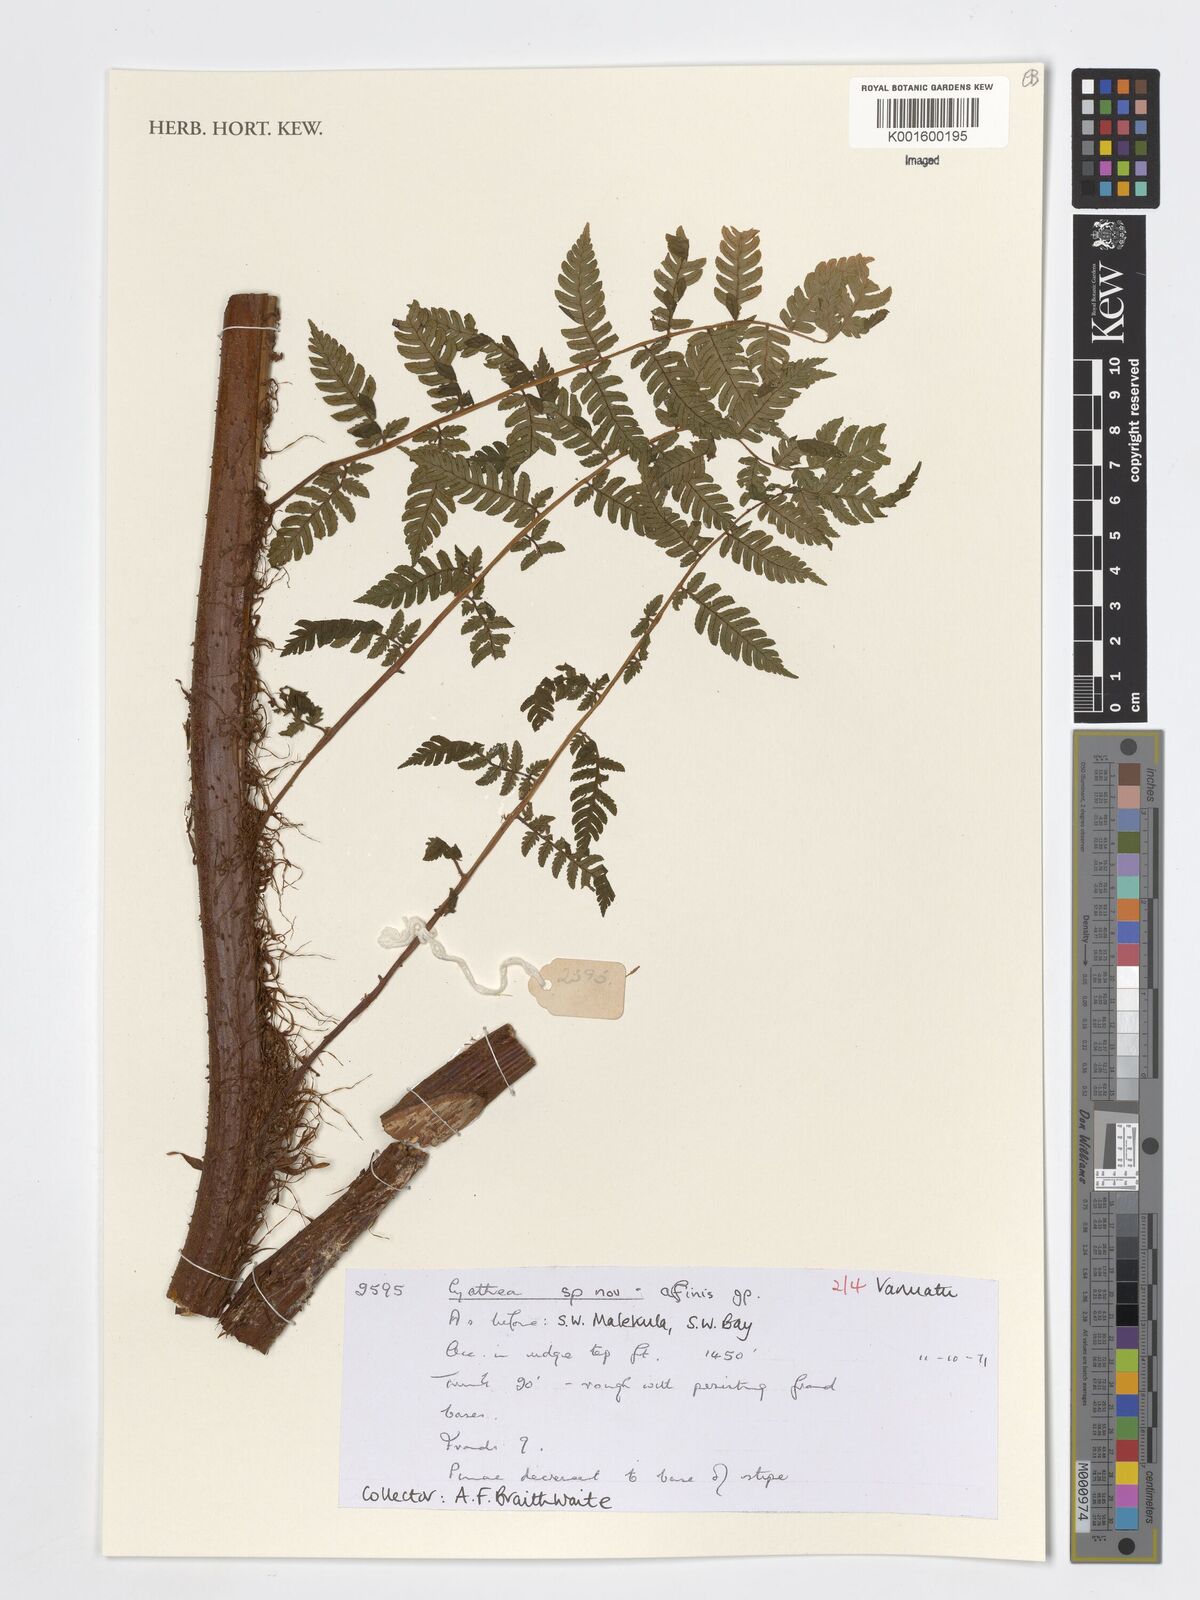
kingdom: Plantae
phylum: Tracheophyta
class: Polypodiopsida
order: Cyatheales
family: Cyatheaceae
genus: Cyathea
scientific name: Cyathea
